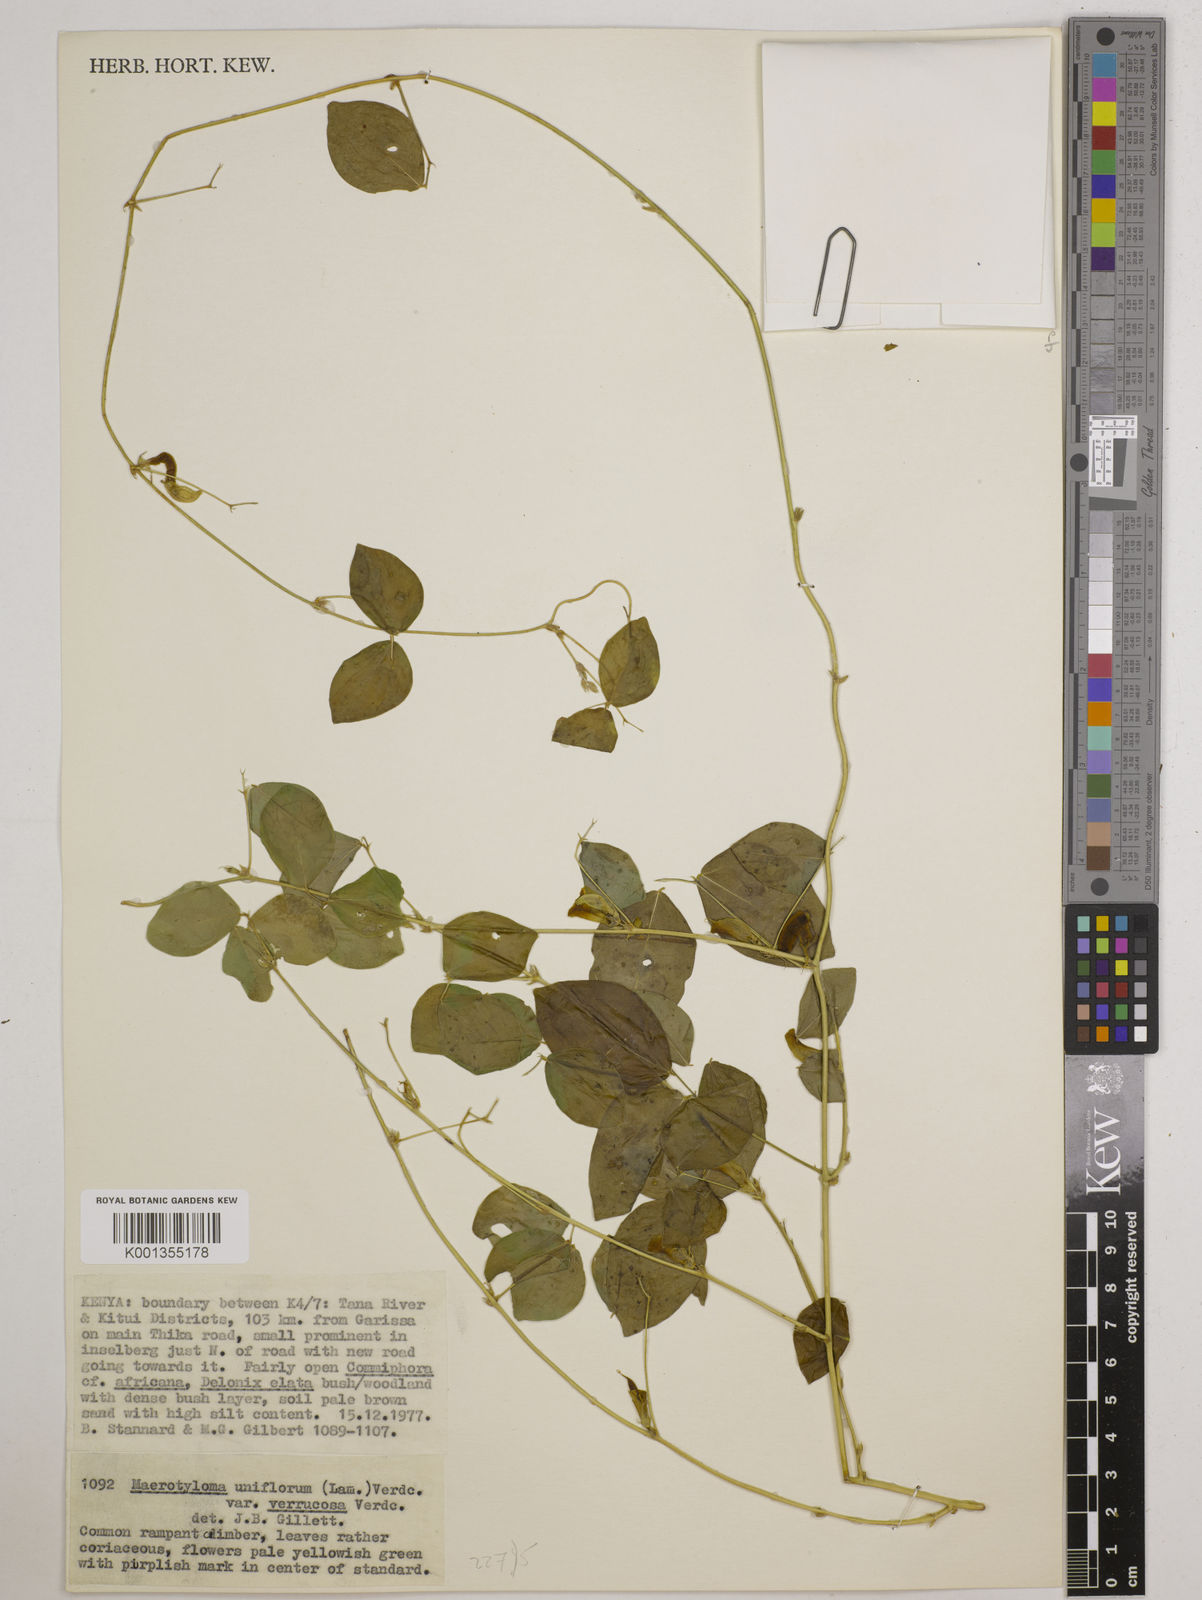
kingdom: Plantae
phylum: Tracheophyta
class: Magnoliopsida
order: Fabales
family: Fabaceae
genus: Macrotyloma
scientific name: Macrotyloma
